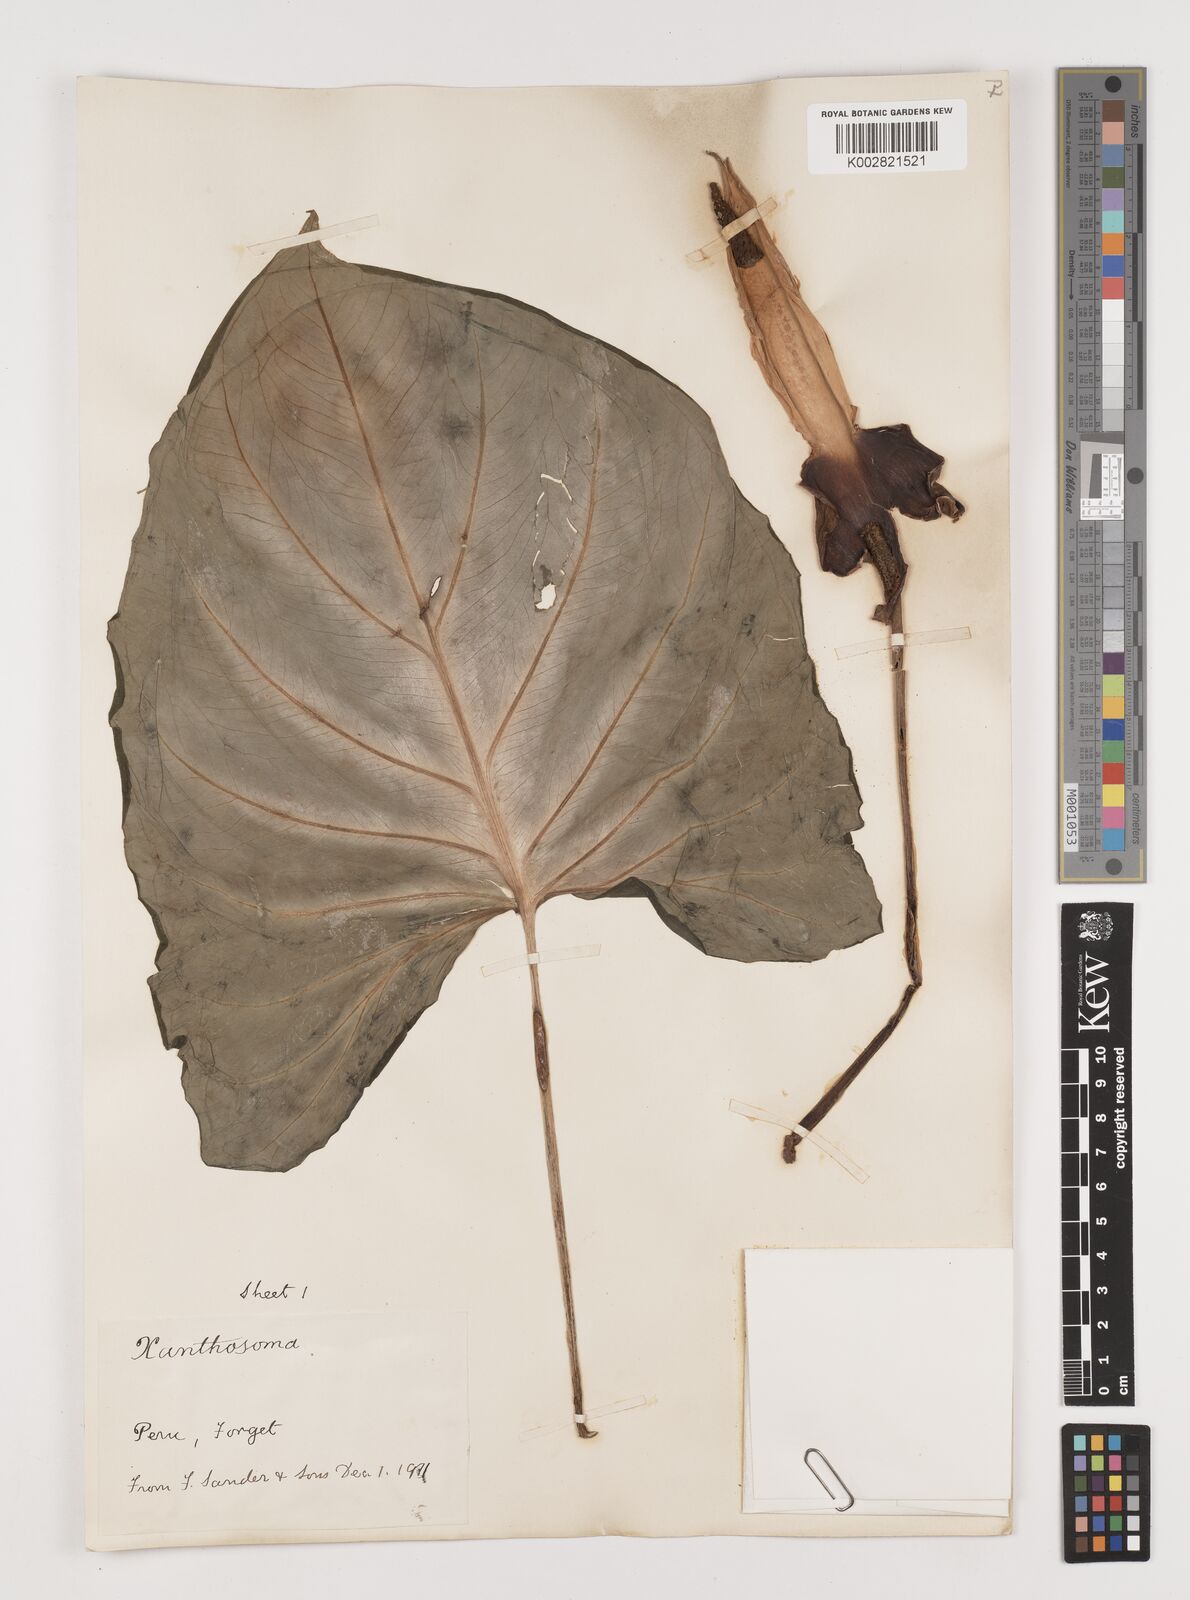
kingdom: Plantae
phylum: Tracheophyta
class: Liliopsida
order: Alismatales
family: Araceae
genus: Xanthosoma
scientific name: Xanthosoma
